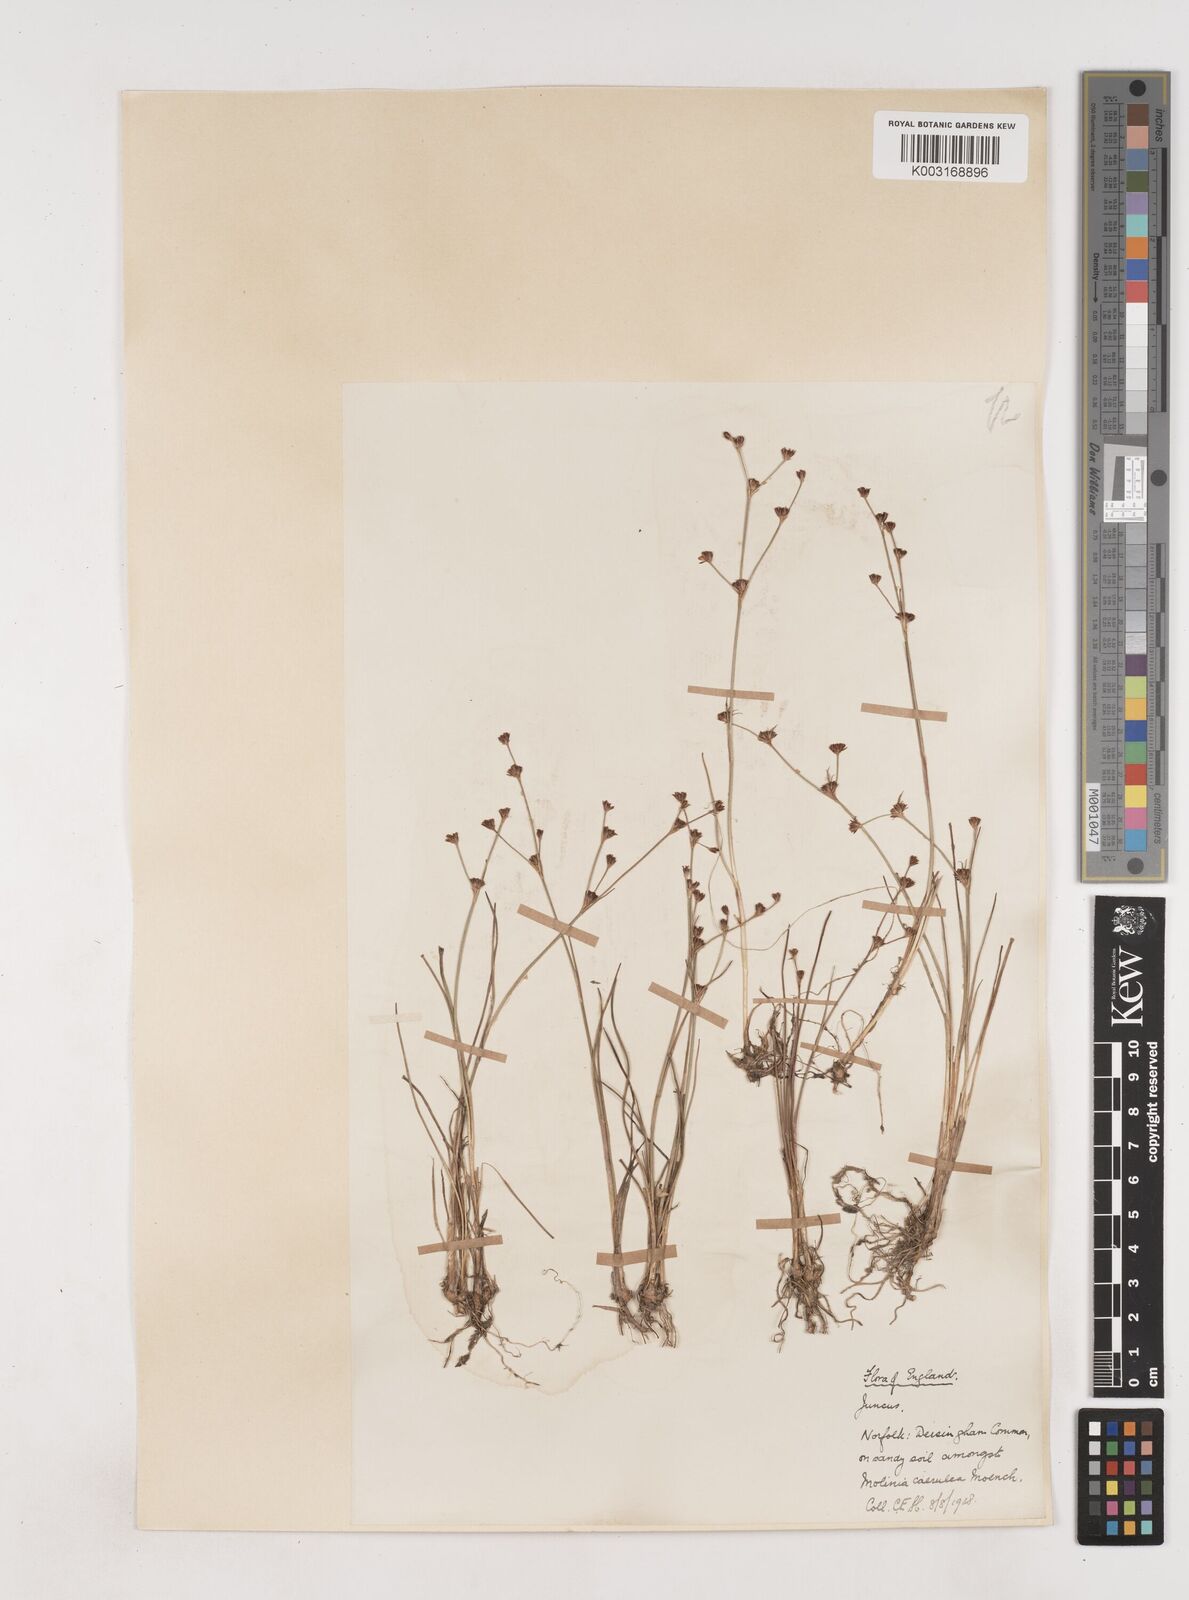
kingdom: Plantae
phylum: Tracheophyta
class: Liliopsida
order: Poales
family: Juncaceae
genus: Juncus
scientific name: Juncus bulbosus
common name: Bulbous rush
